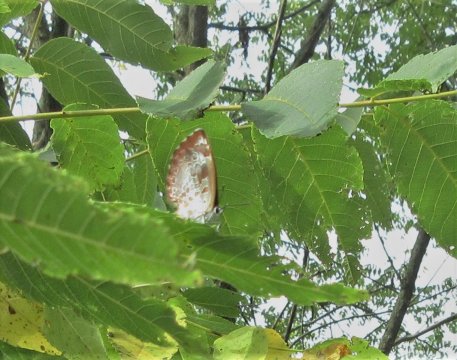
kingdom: Animalia
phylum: Arthropoda
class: Insecta
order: Lepidoptera
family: Lycaenidae
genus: Feniseca
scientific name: Feniseca tarquinius
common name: Harvester
